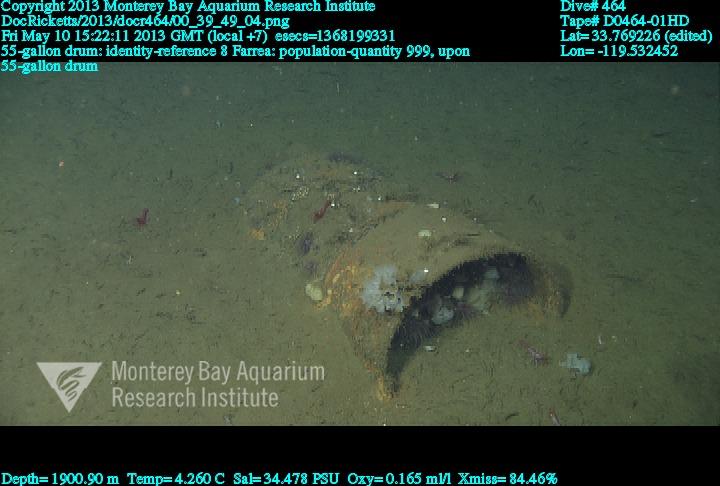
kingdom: Animalia
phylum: Porifera
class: Hexactinellida
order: Sceptrulophora
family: Farreidae
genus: Farrea
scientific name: Farrea
